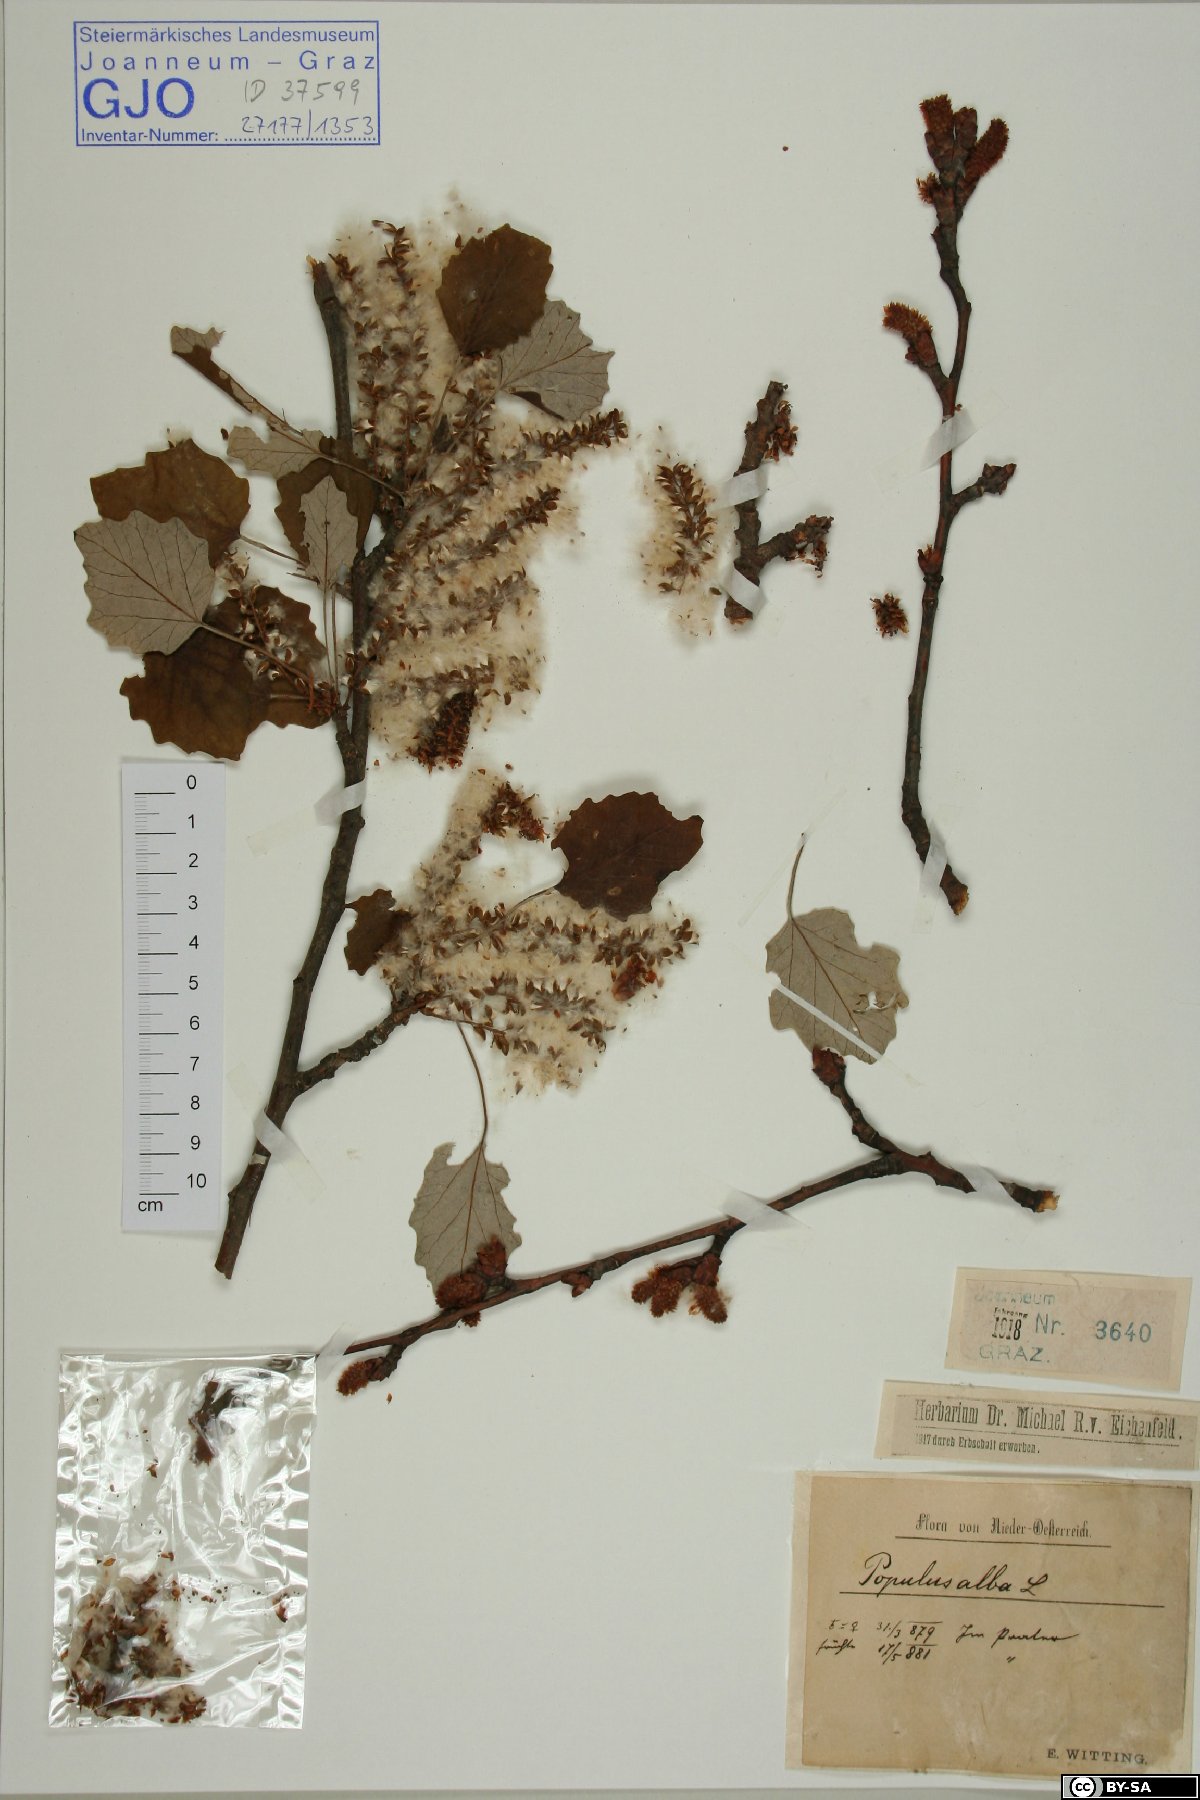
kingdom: Plantae
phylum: Tracheophyta
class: Magnoliopsida
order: Malpighiales
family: Salicaceae
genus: Populus
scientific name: Populus alba
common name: White poplar
